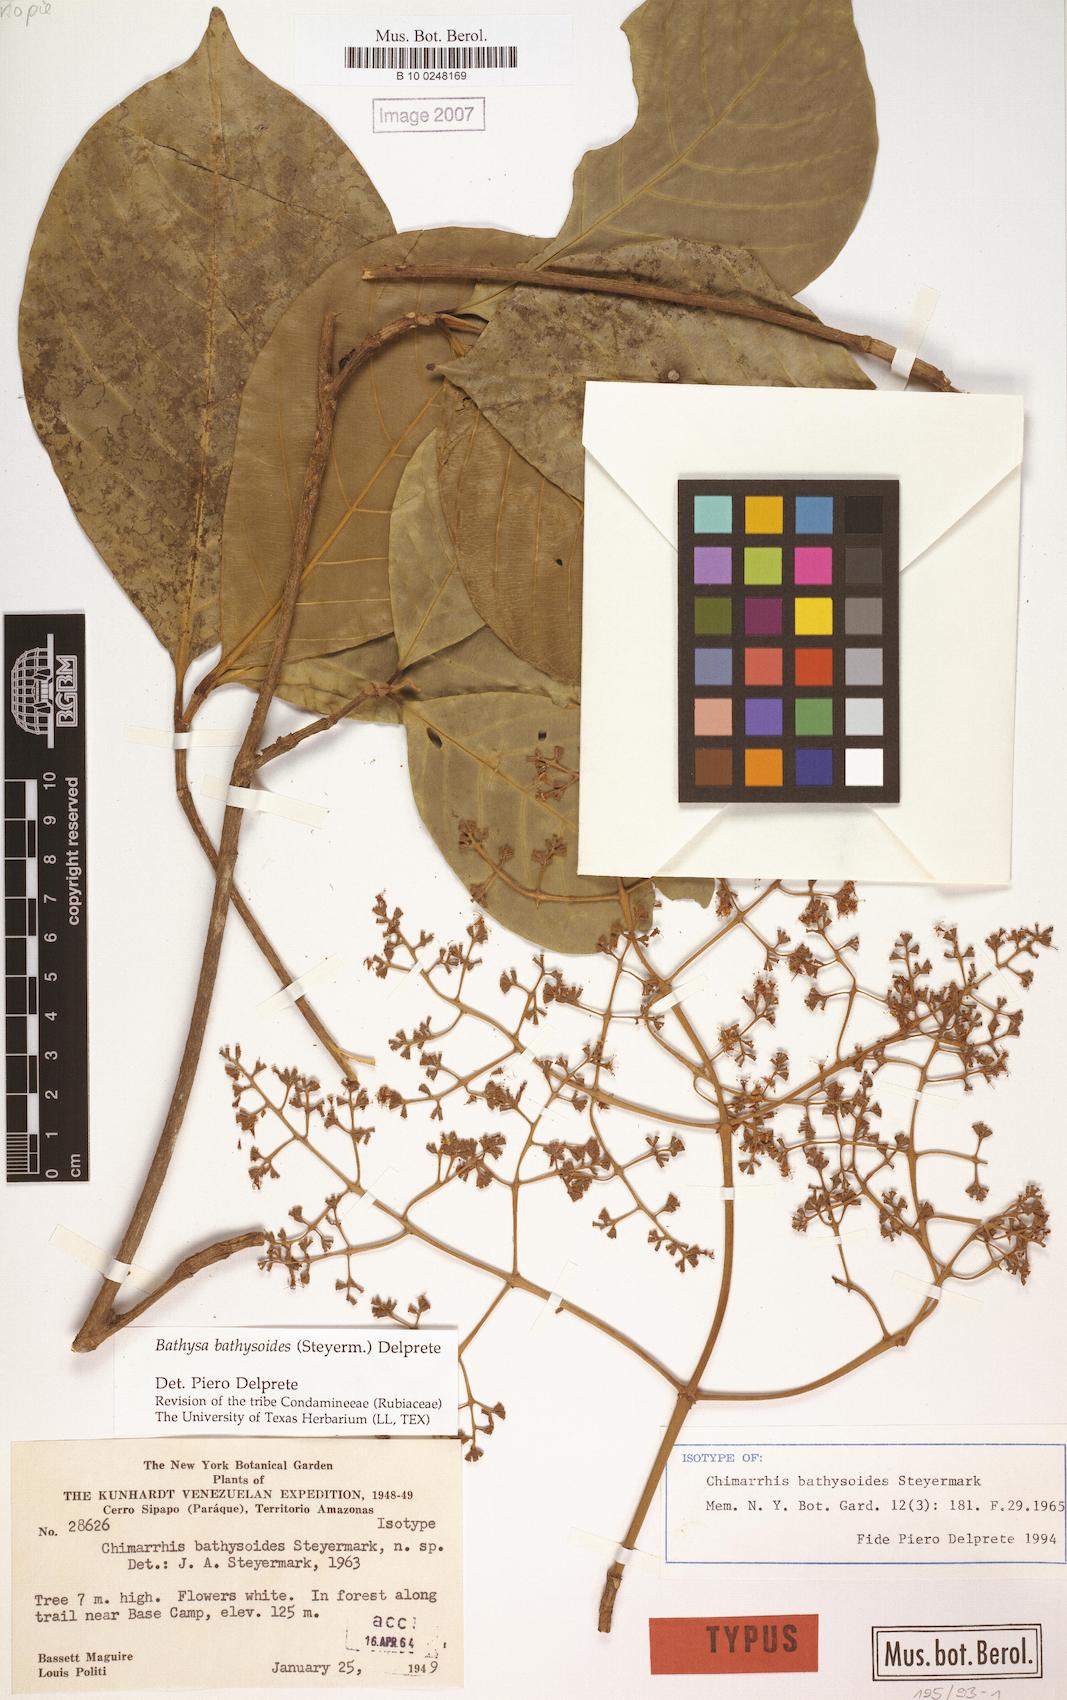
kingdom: Plantae
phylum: Tracheophyta
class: Magnoliopsida
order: Gentianales
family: Rubiaceae
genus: Bathysa
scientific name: Bathysa bathysoides
